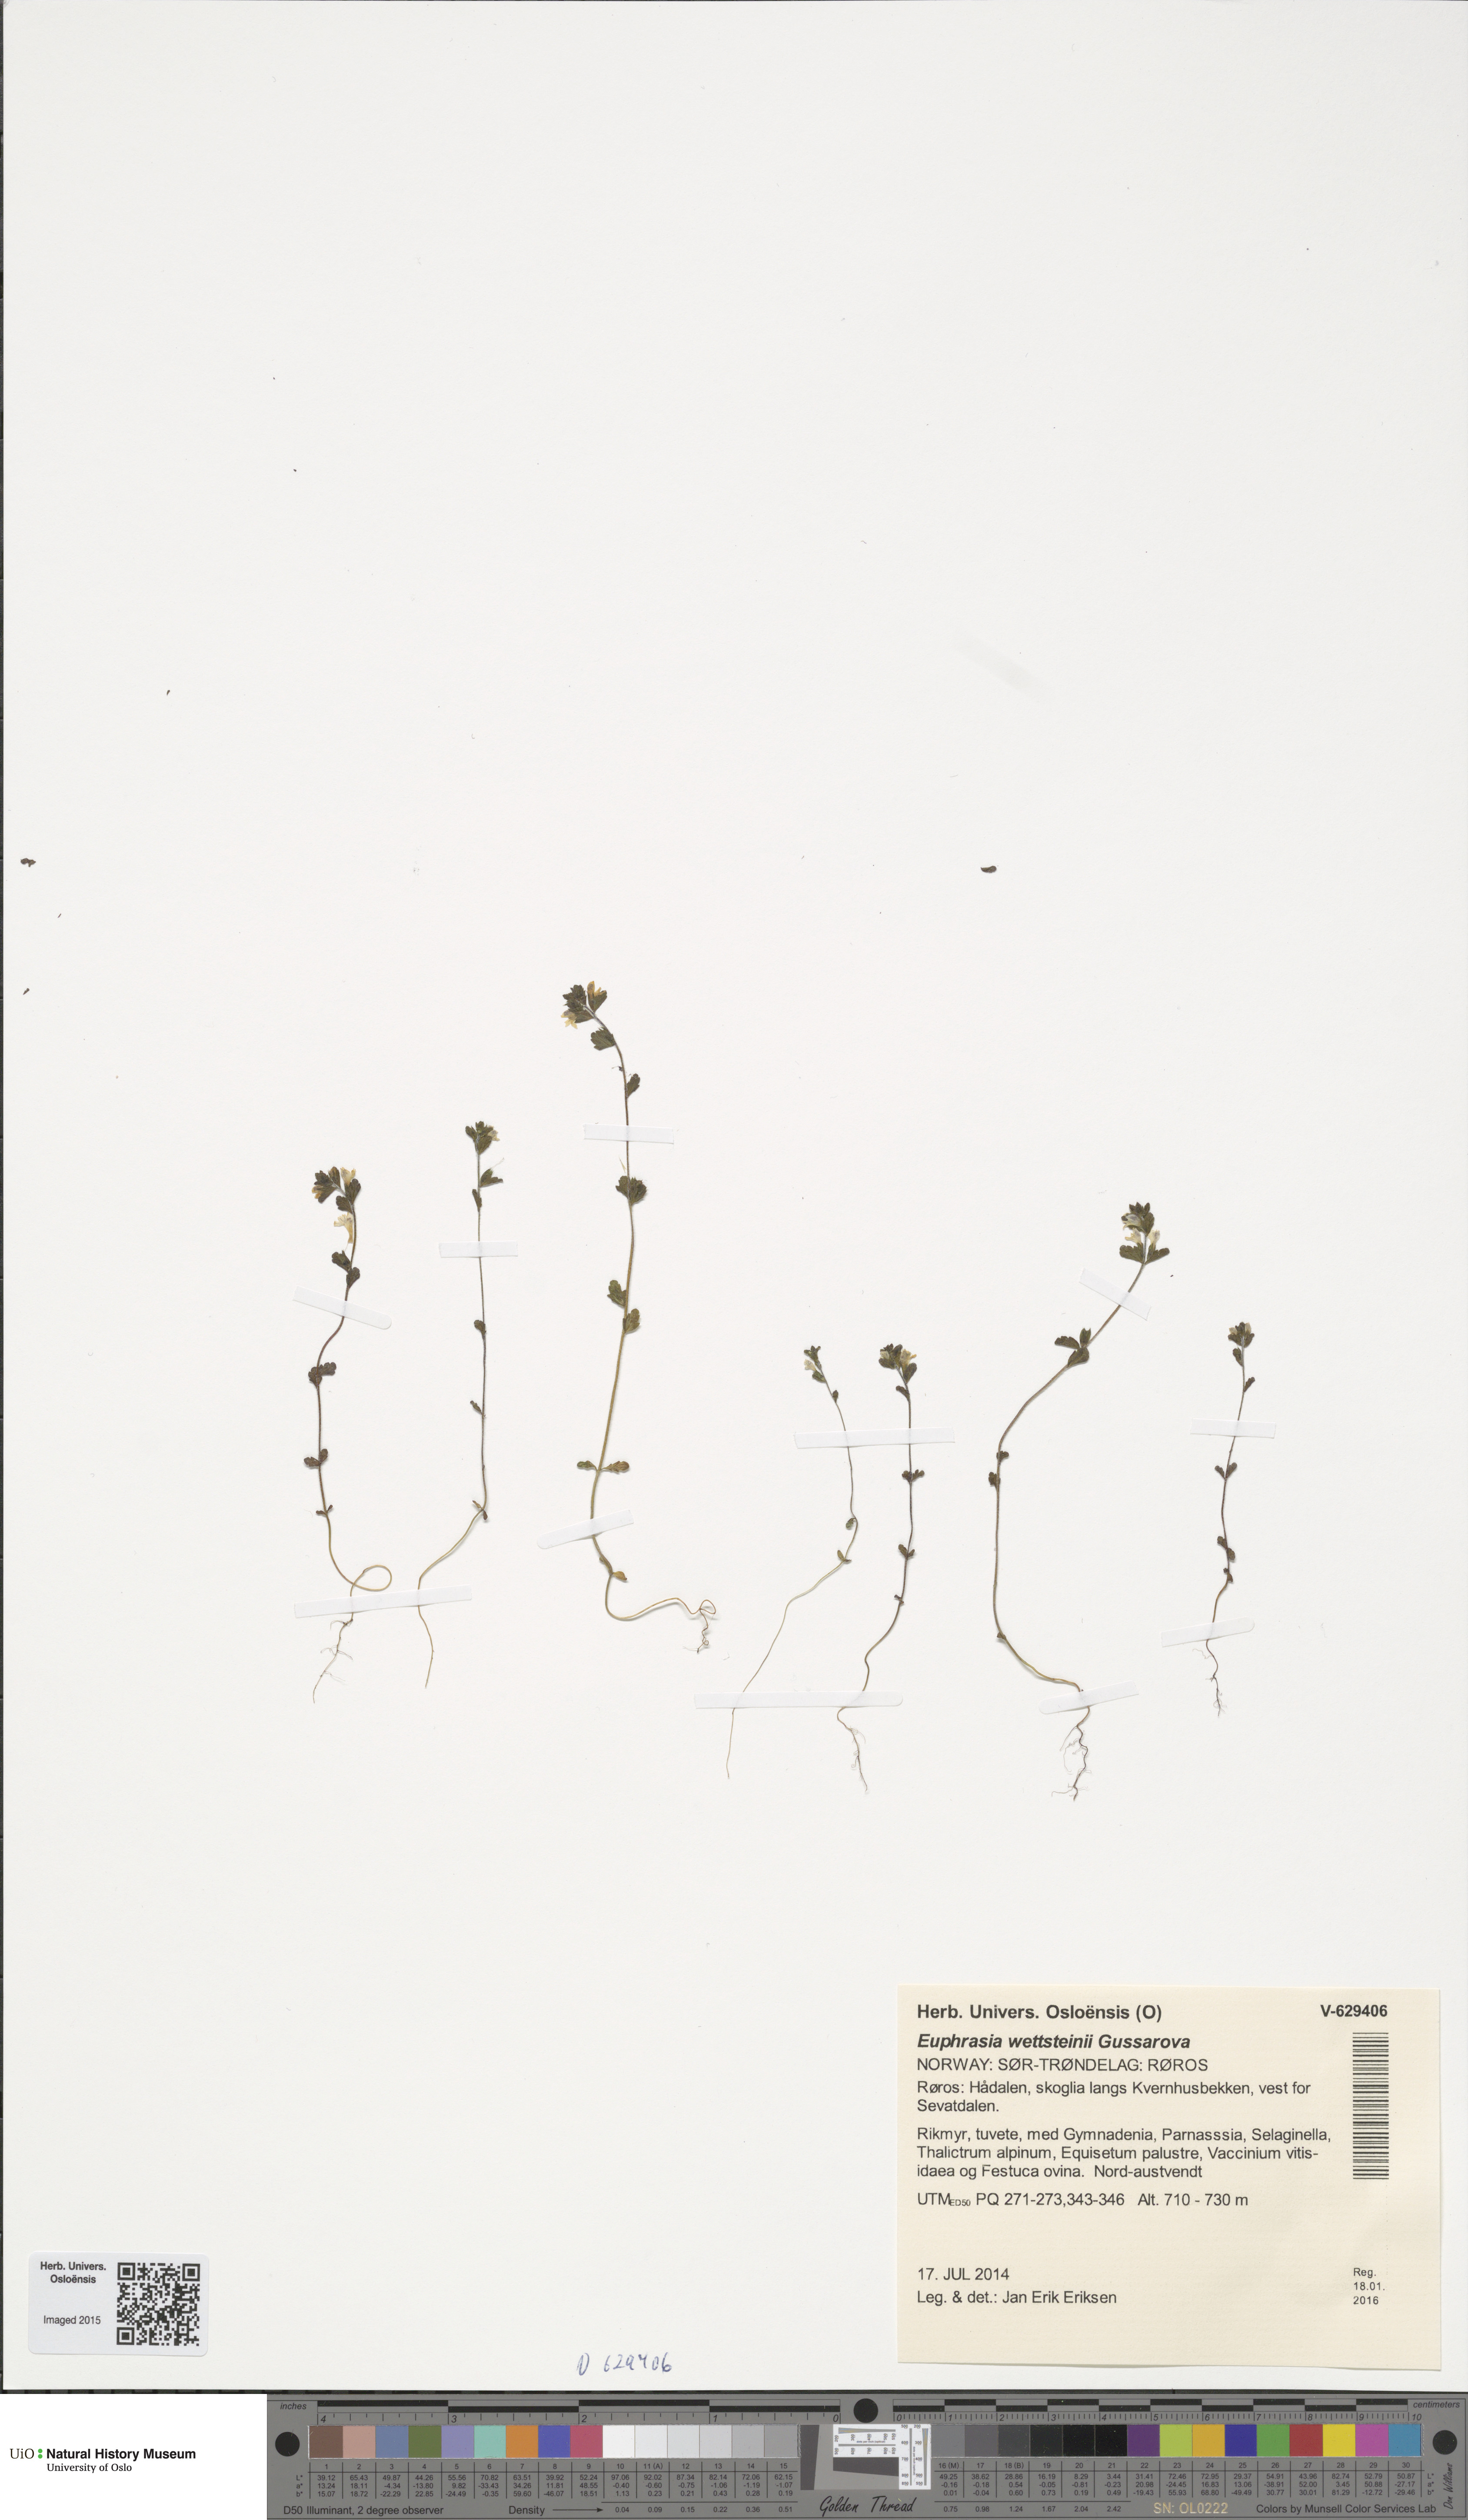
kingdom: Plantae
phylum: Tracheophyta
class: Magnoliopsida
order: Lamiales
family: Orobanchaceae
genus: Euphrasia
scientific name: Euphrasia wettsteinii
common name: Wettstein's eyebright
